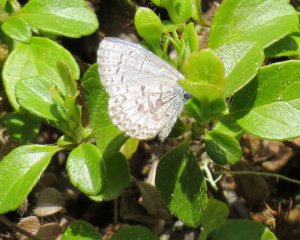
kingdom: Animalia
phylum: Arthropoda
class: Insecta
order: Lepidoptera
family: Lycaenidae
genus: Celastrina
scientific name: Celastrina lucia
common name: Northern Spring Azure
